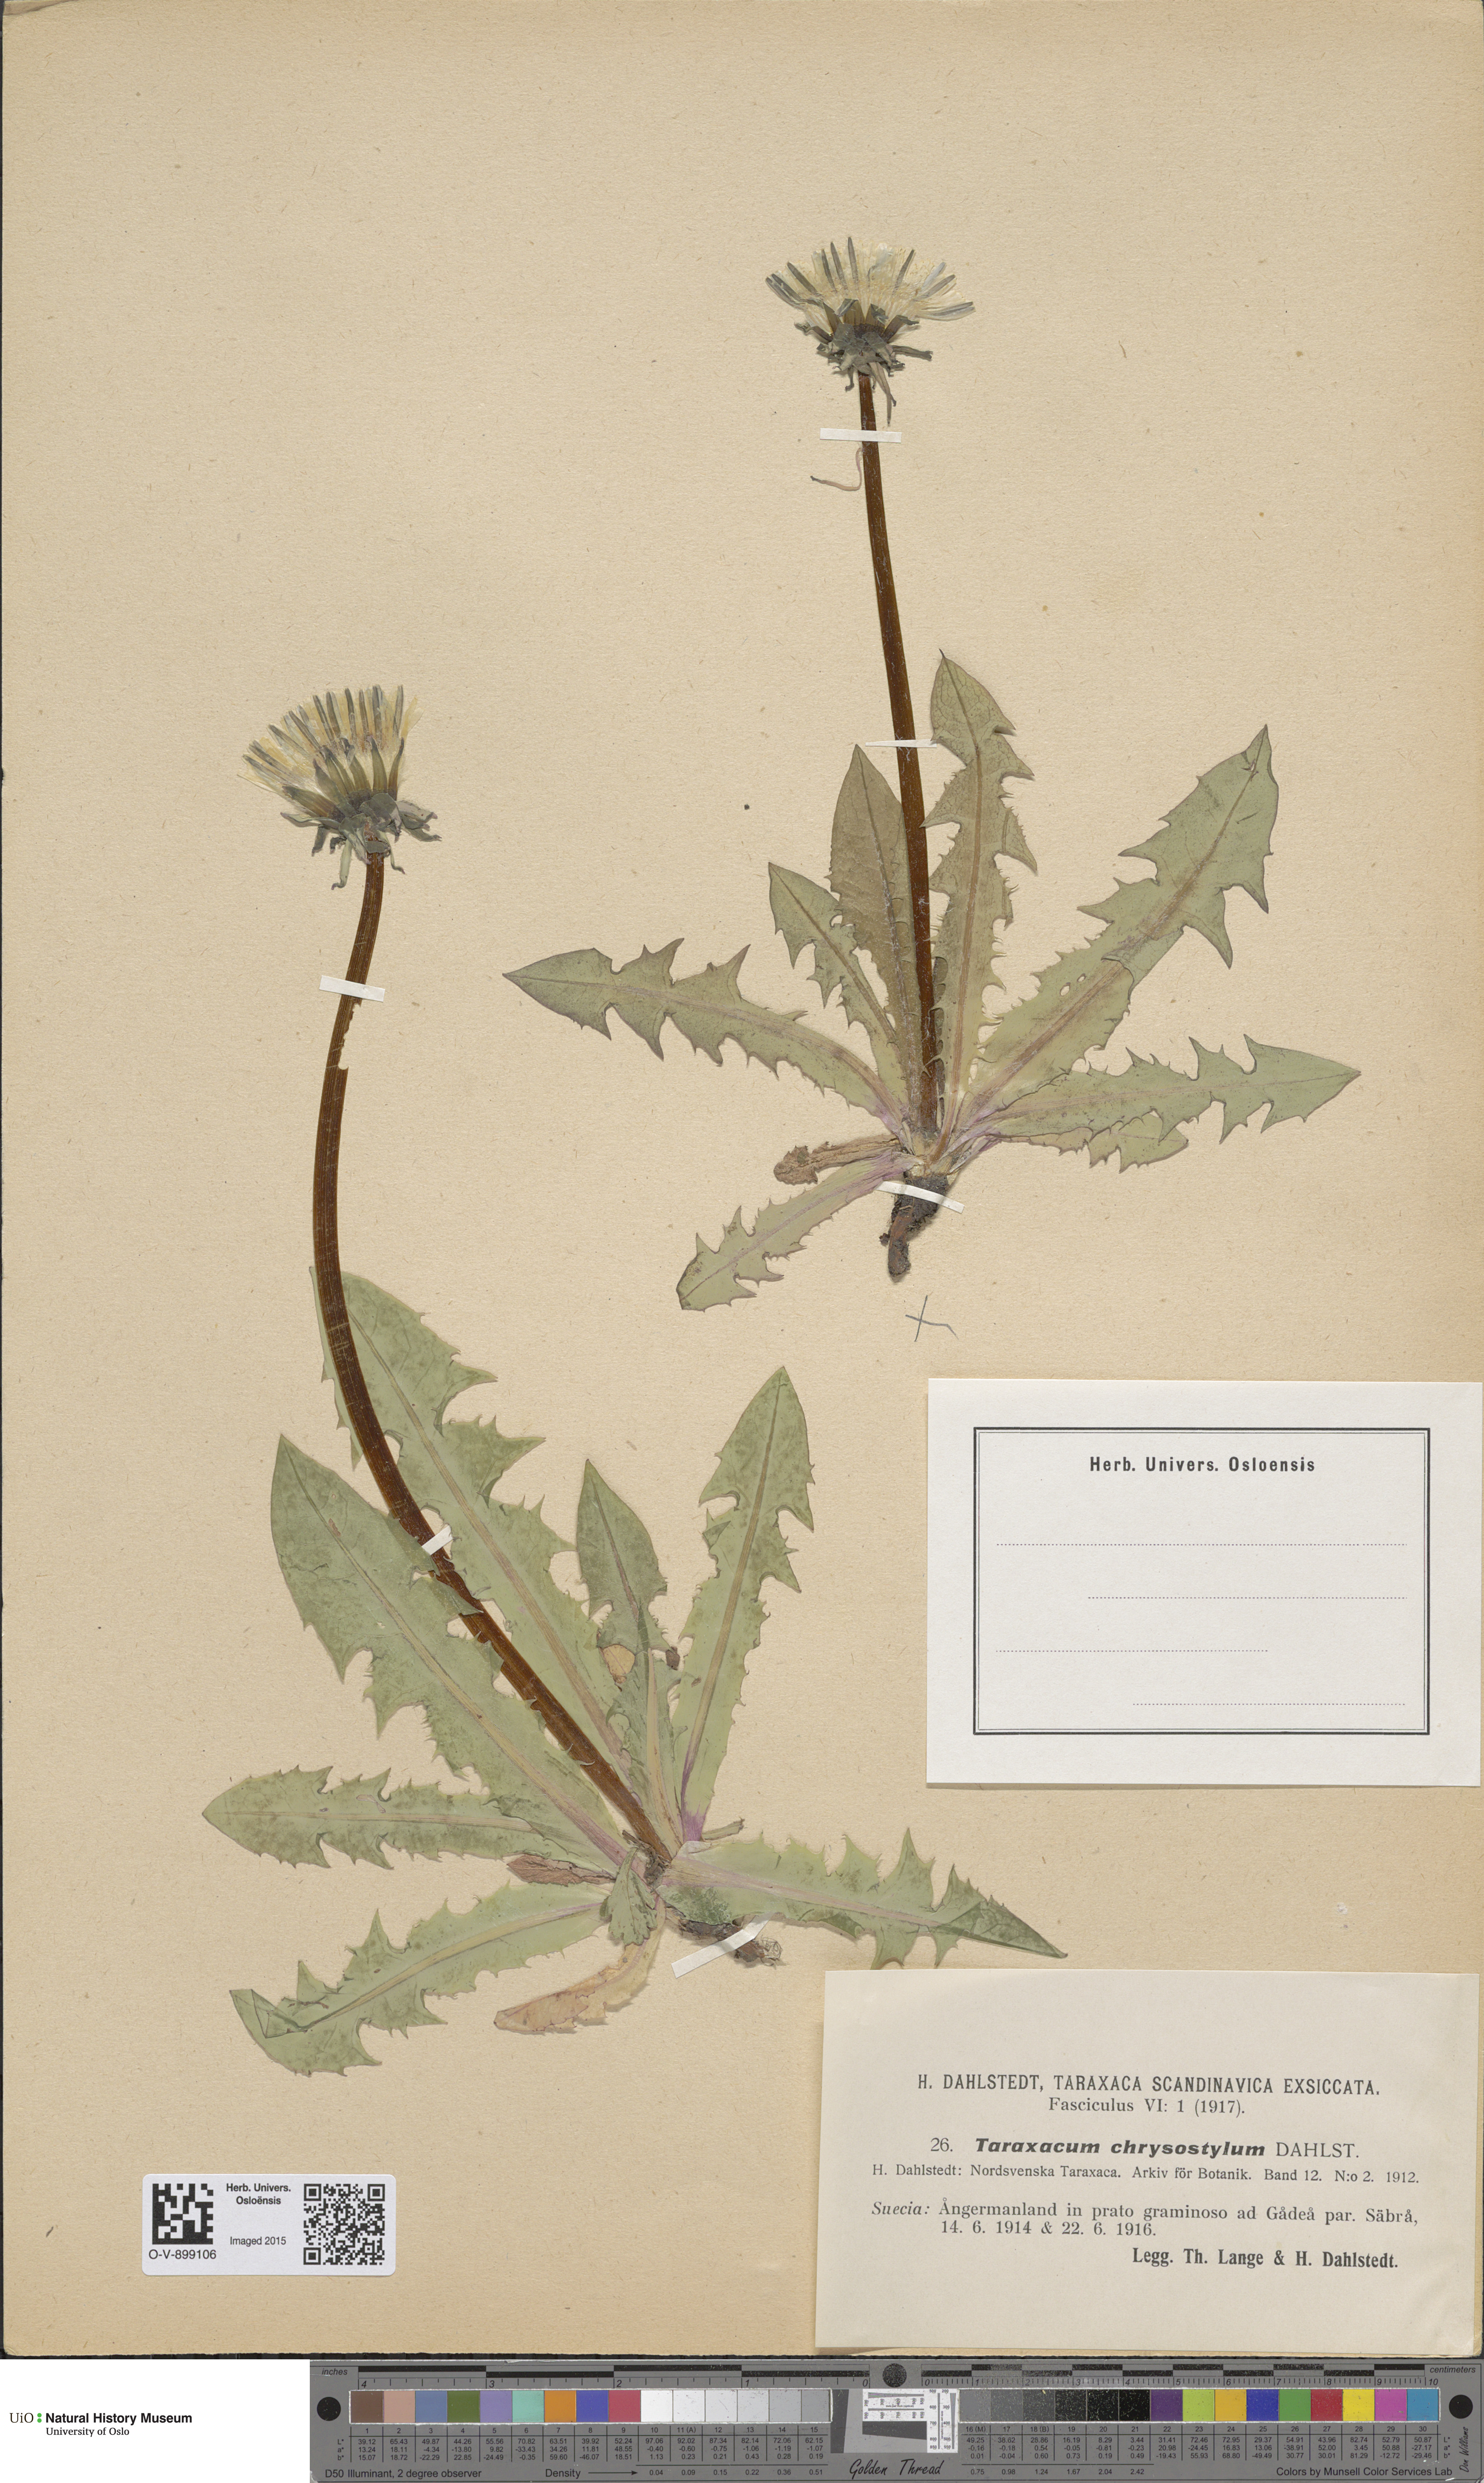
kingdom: Plantae
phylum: Tracheophyta
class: Magnoliopsida
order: Asterales
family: Asteraceae
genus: Taraxacum
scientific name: Taraxacum chrysostylum
